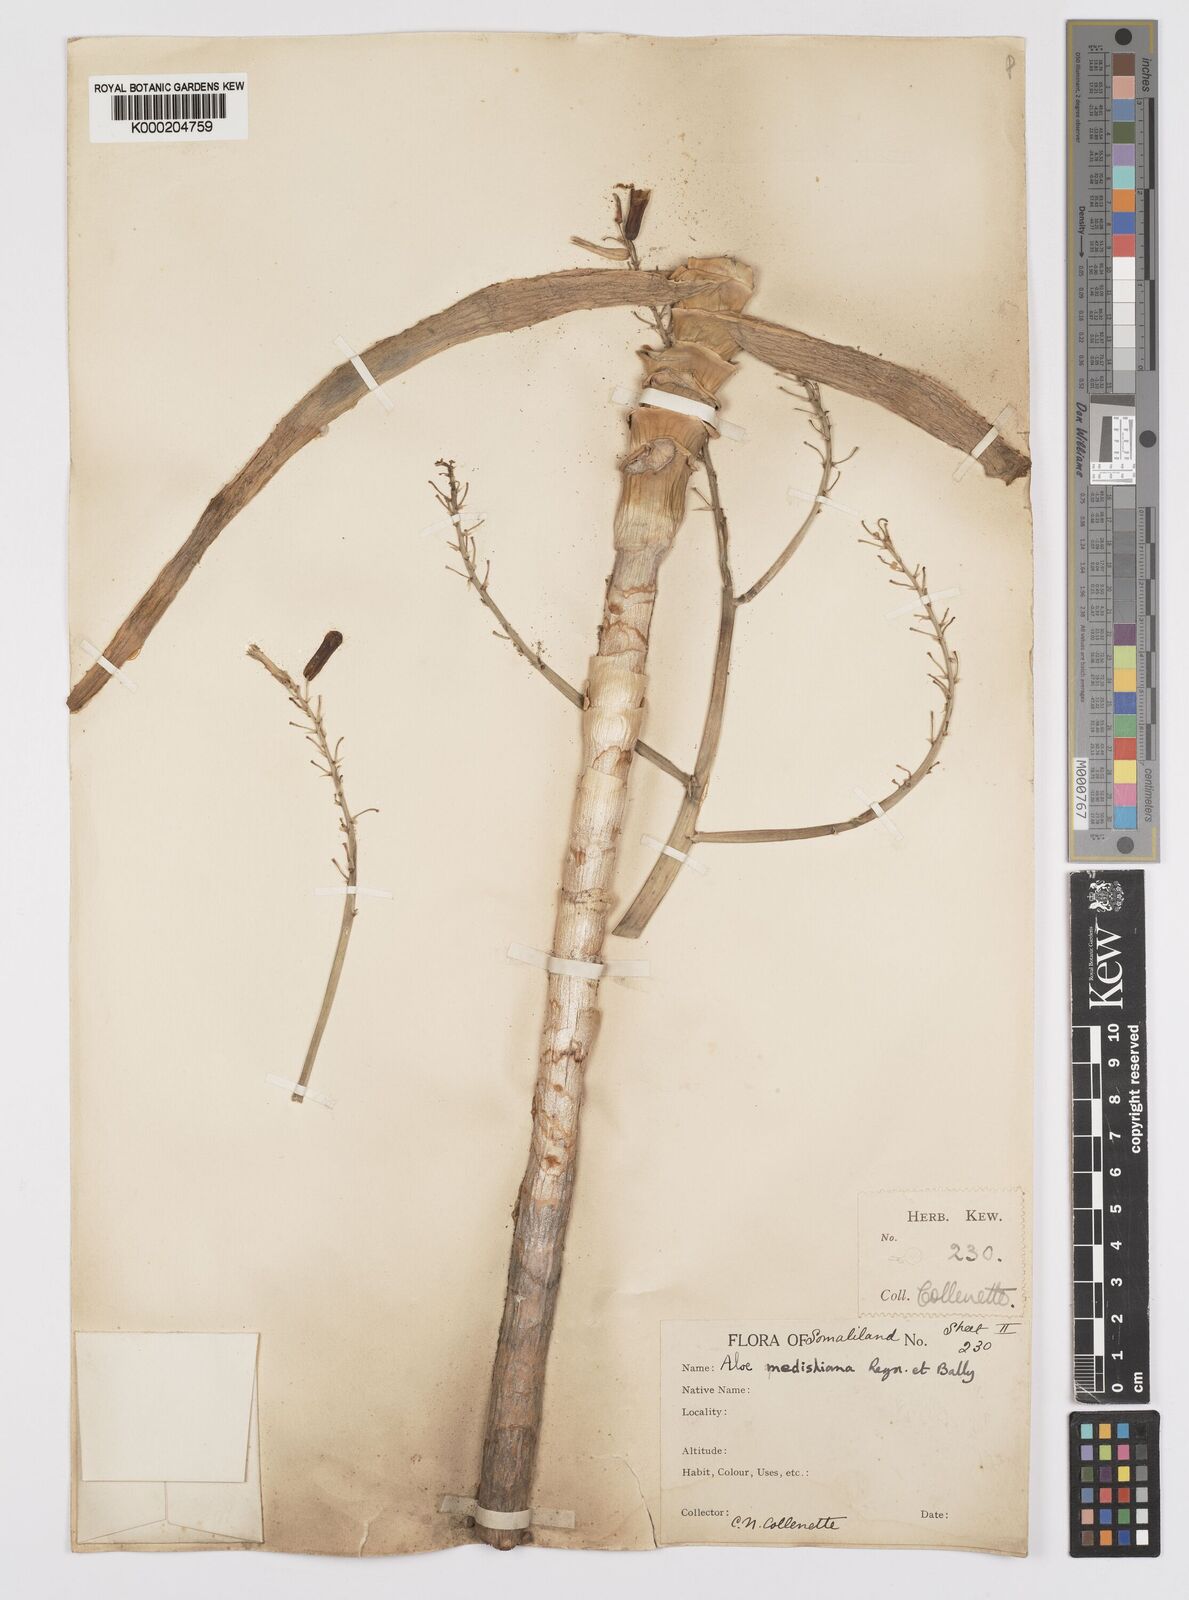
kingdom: Plantae
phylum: Tracheophyta
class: Liliopsida
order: Asparagales
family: Asphodelaceae
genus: Aloe
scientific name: Aloe medishiana
